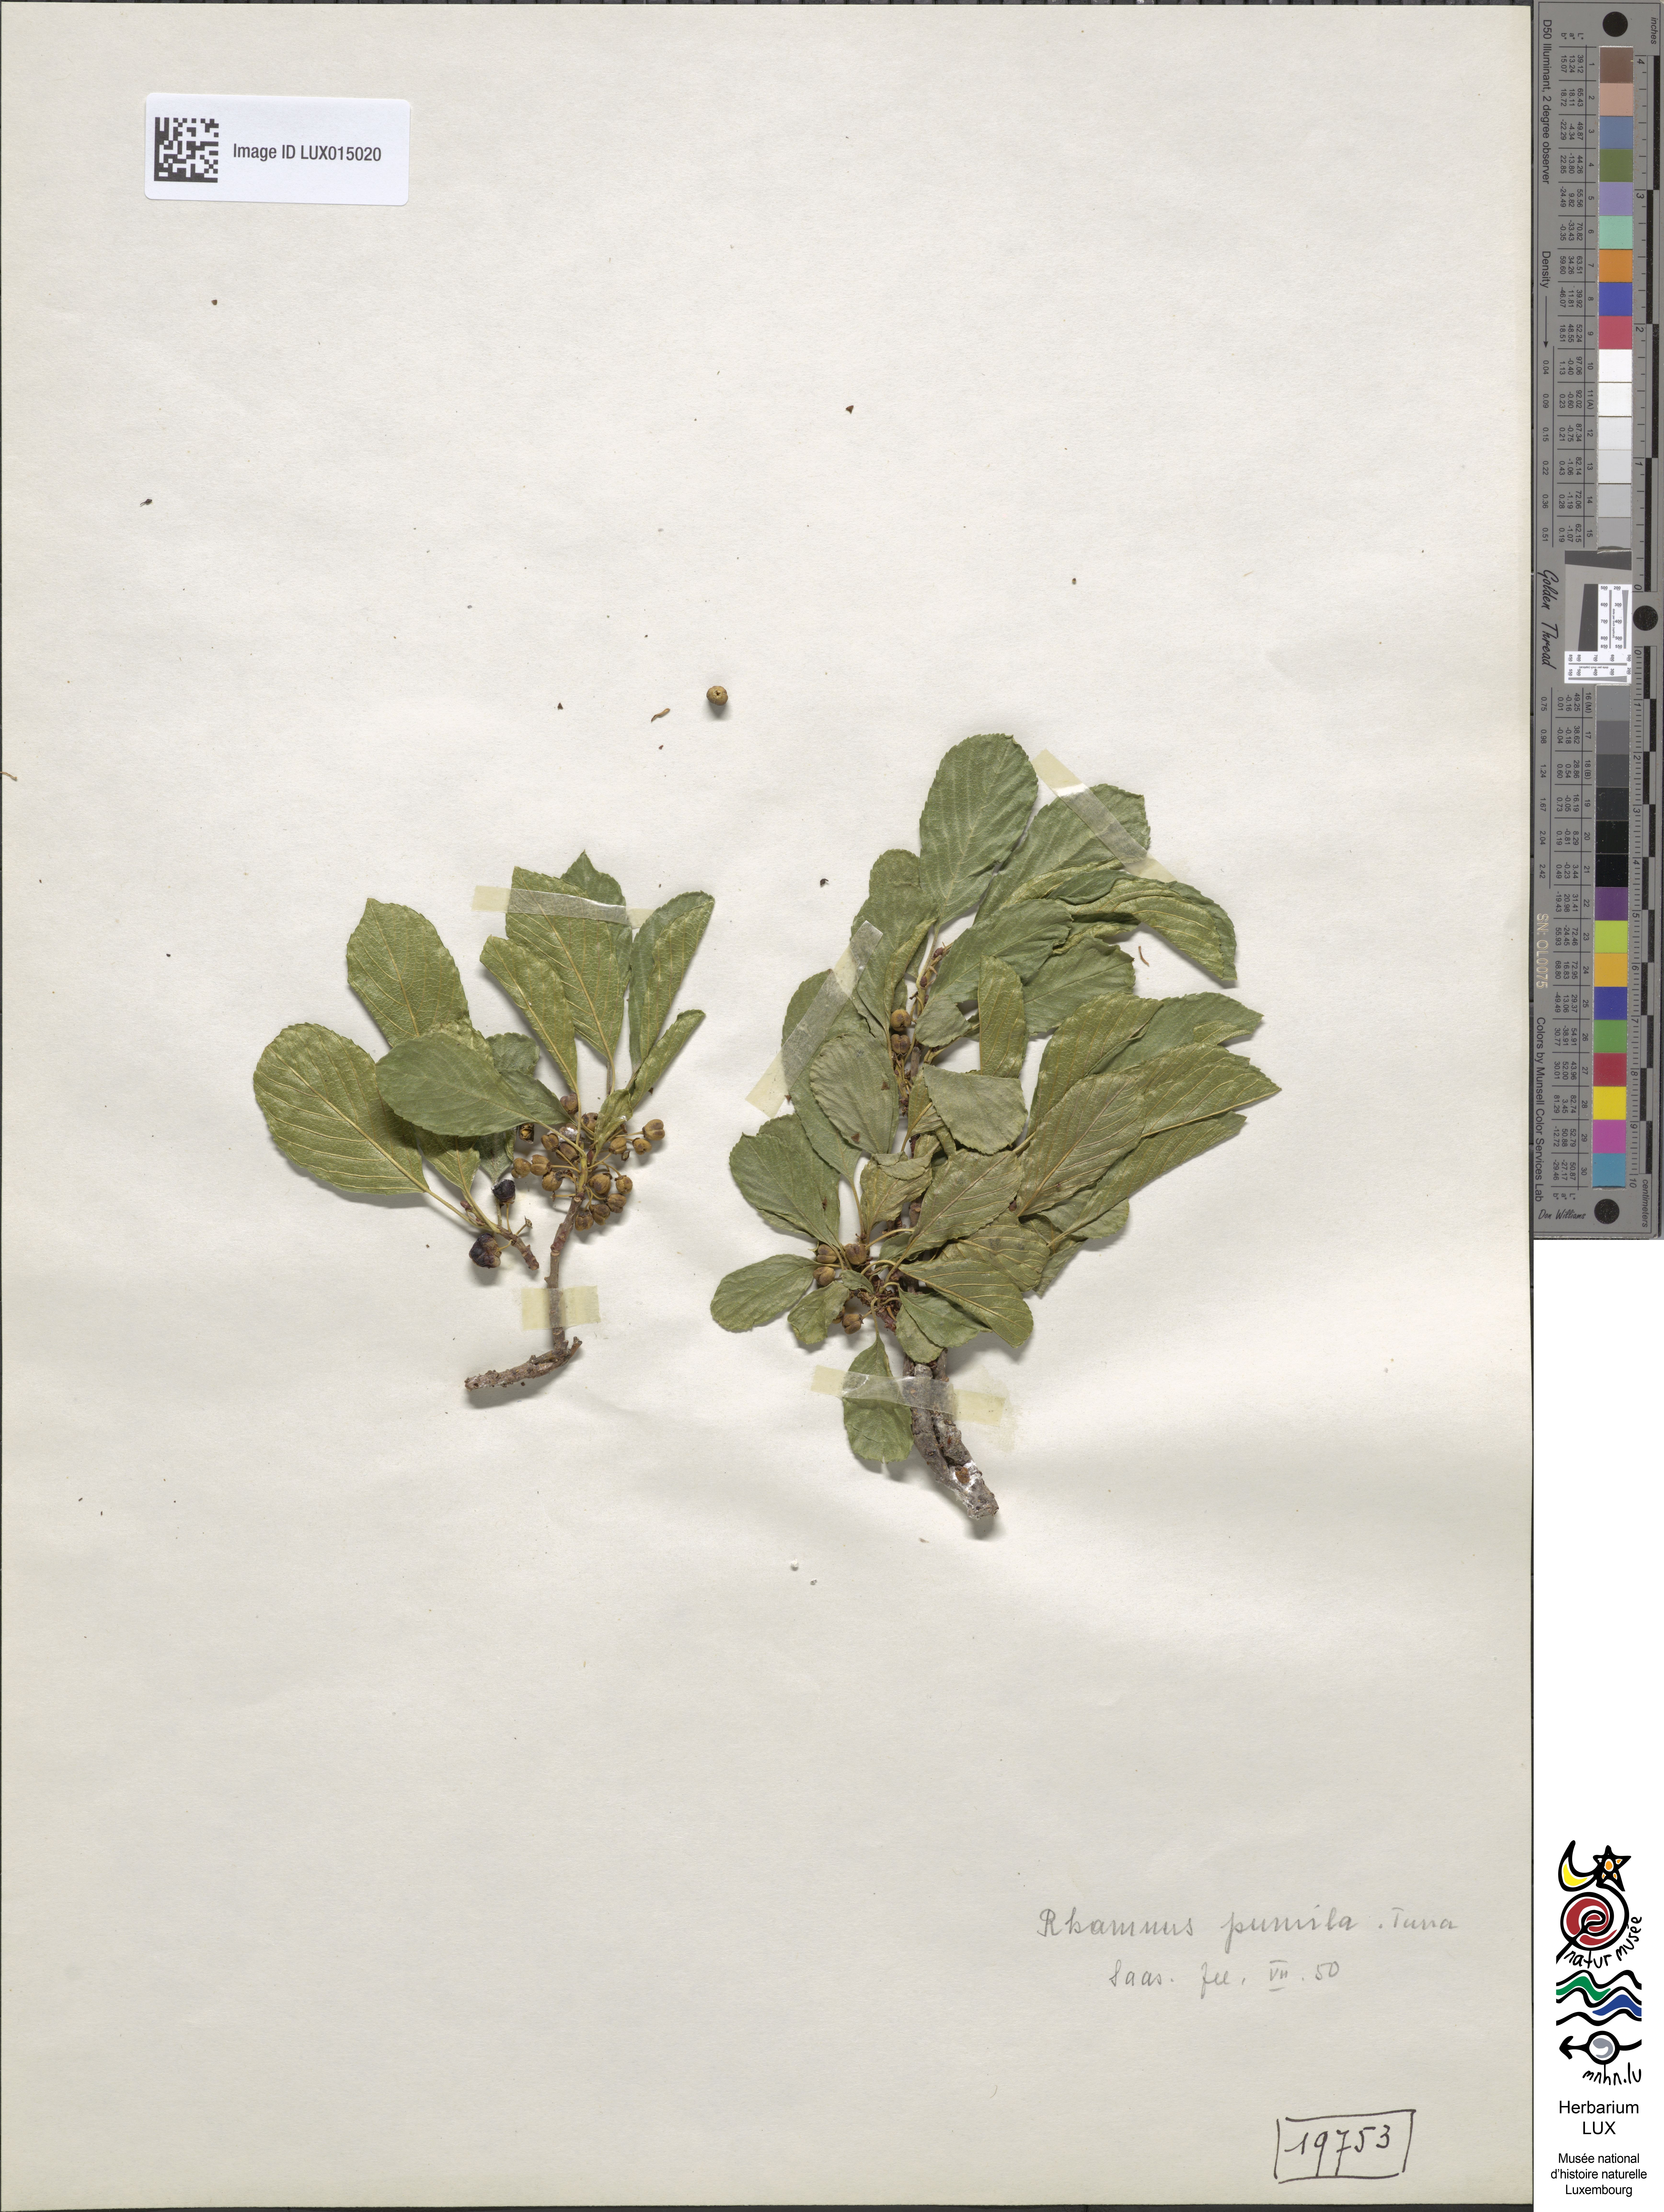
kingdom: Plantae
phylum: Tracheophyta
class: Magnoliopsida
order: Rosales
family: Rhamnaceae
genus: Atadinus
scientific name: Atadinus pumilus
